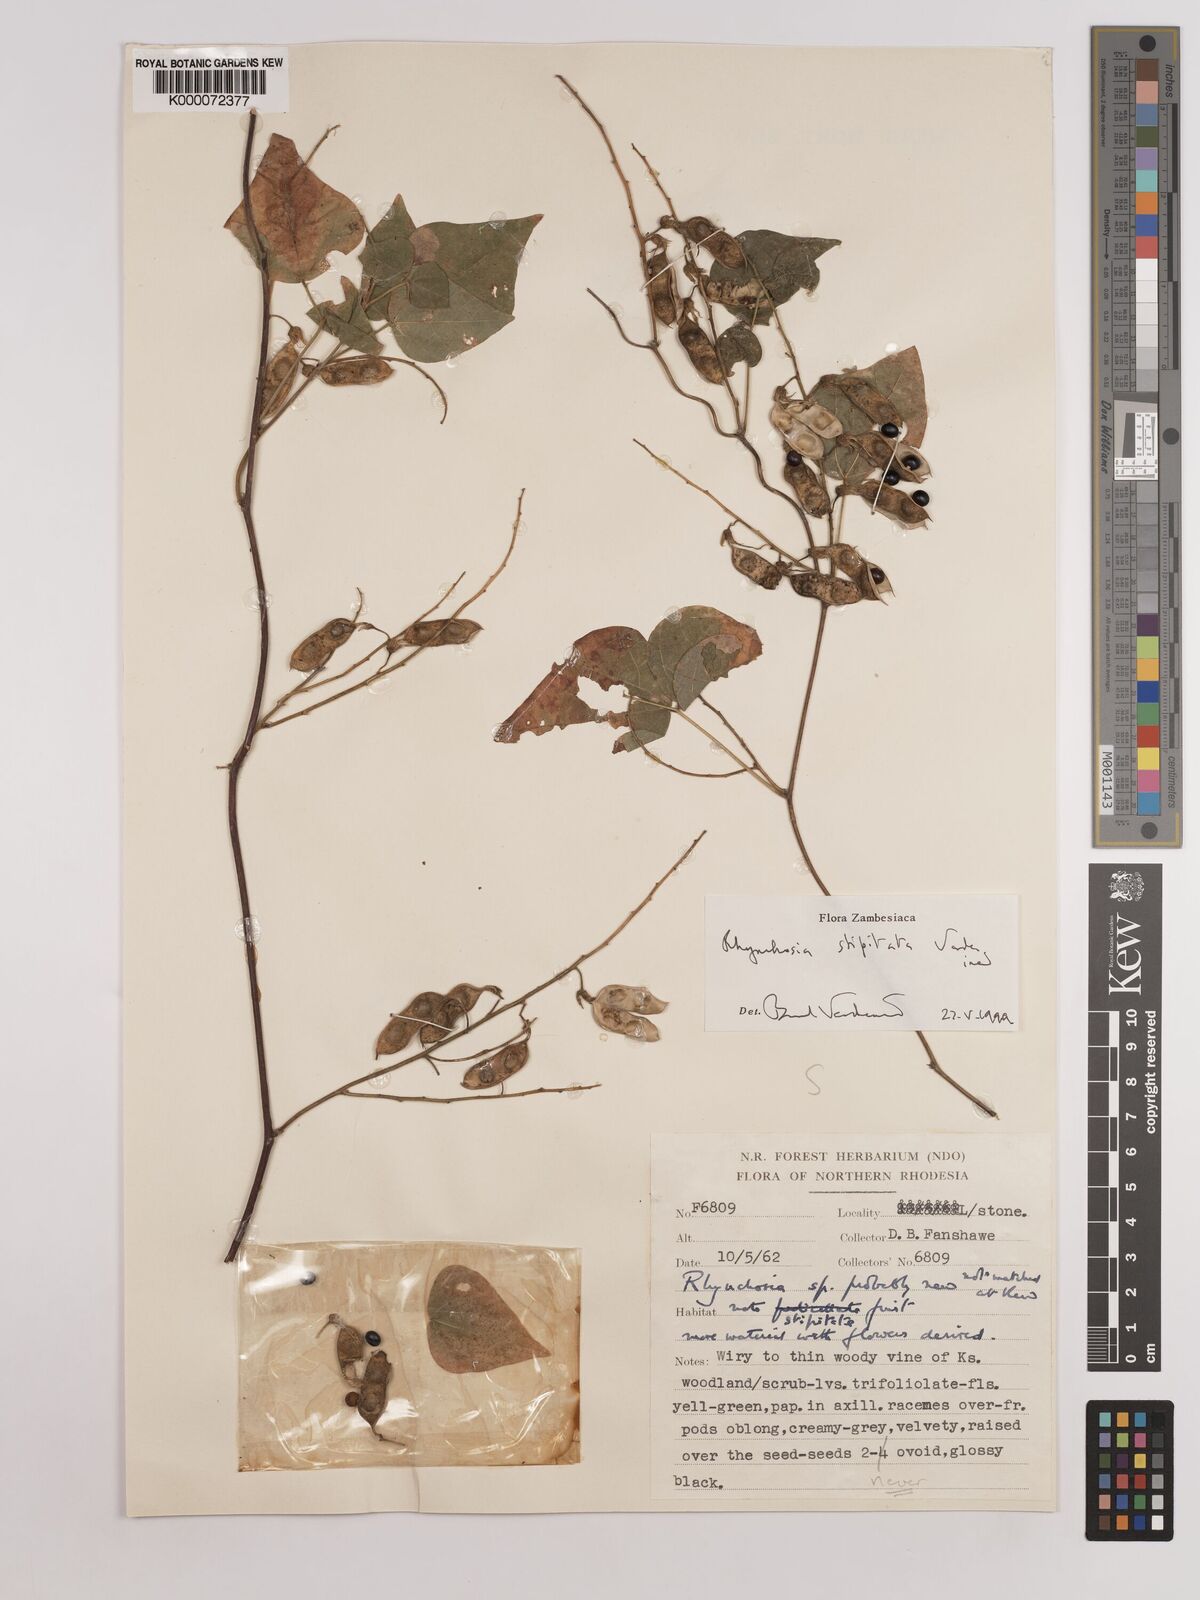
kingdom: Plantae
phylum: Tracheophyta
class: Magnoliopsida
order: Fabales
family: Fabaceae
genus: Rhynchosia
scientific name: Rhynchosia stipitata
